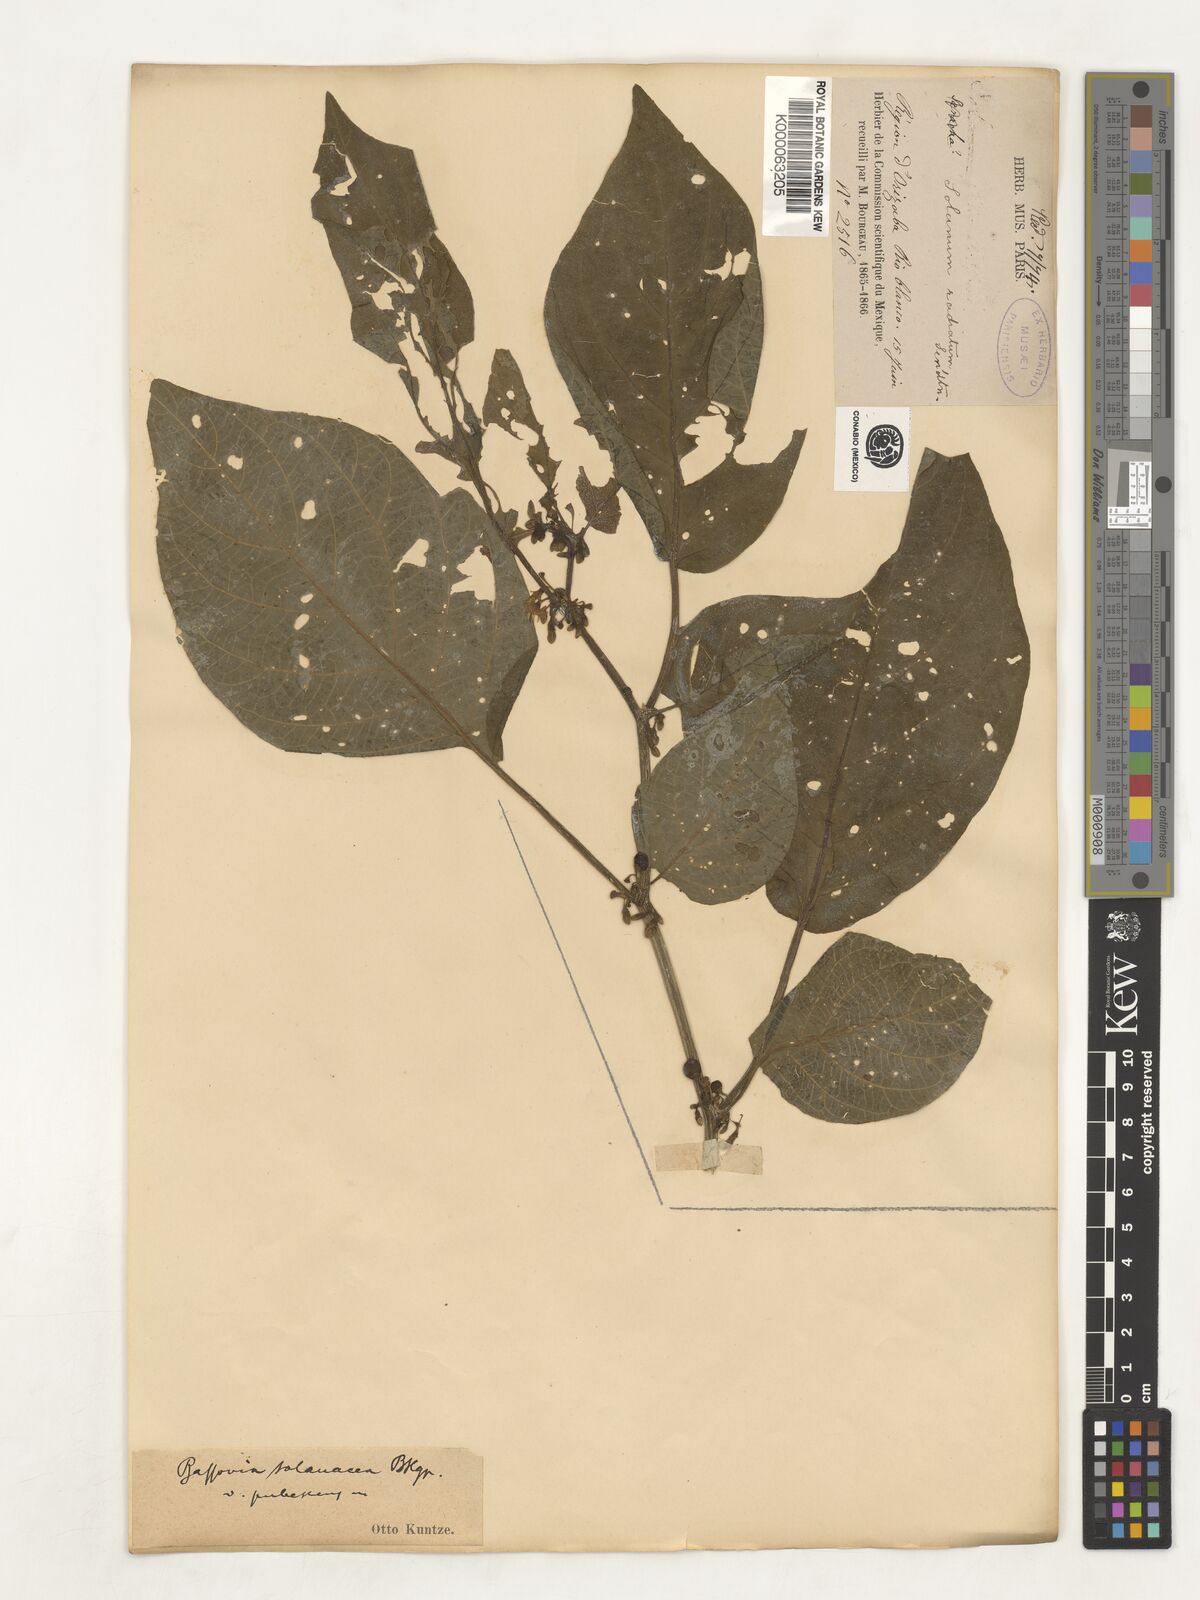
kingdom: Plantae
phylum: Tracheophyta
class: Magnoliopsida
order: Solanales
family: Solanaceae
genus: Witheringia
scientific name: Witheringia
